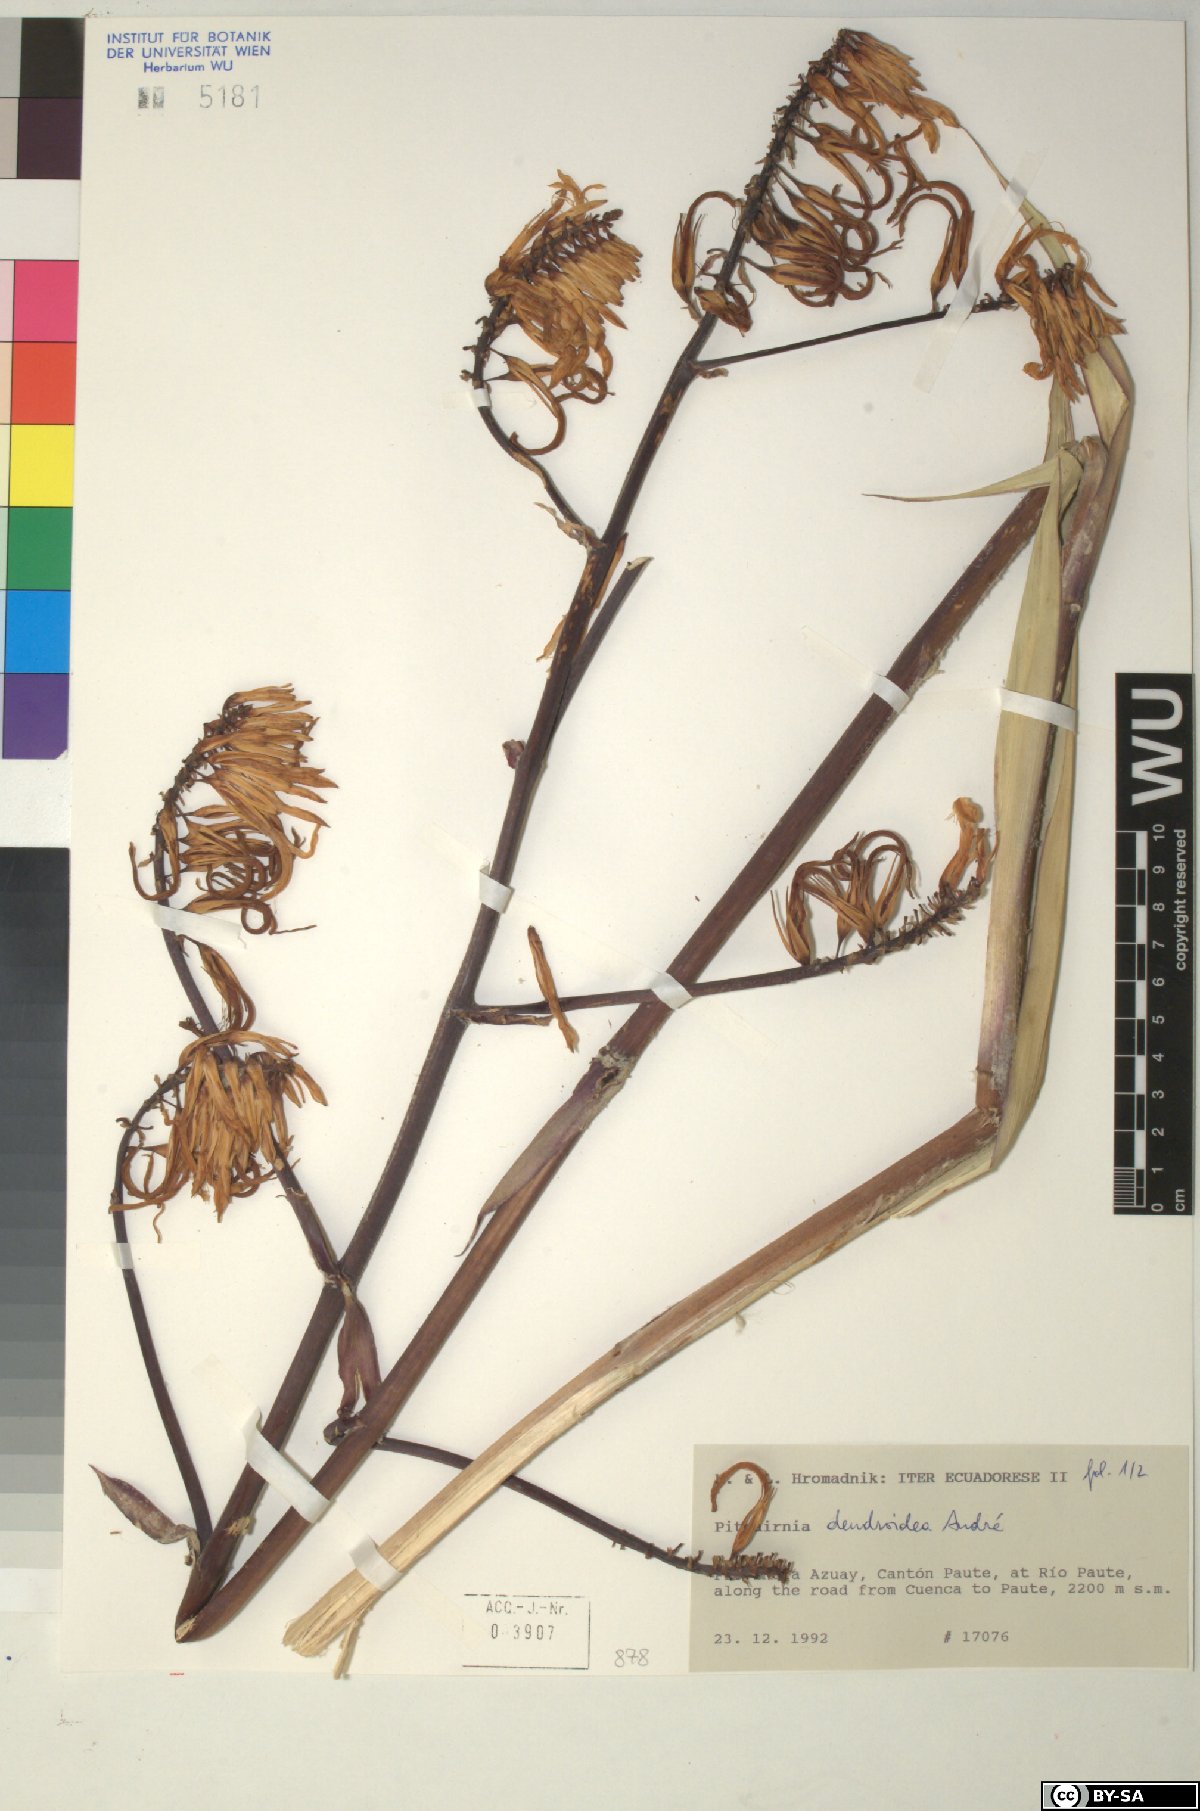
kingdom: Plantae
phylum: Tracheophyta
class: Liliopsida
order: Poales
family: Bromeliaceae
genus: Pitcairnia
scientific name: Pitcairnia dendroidea
